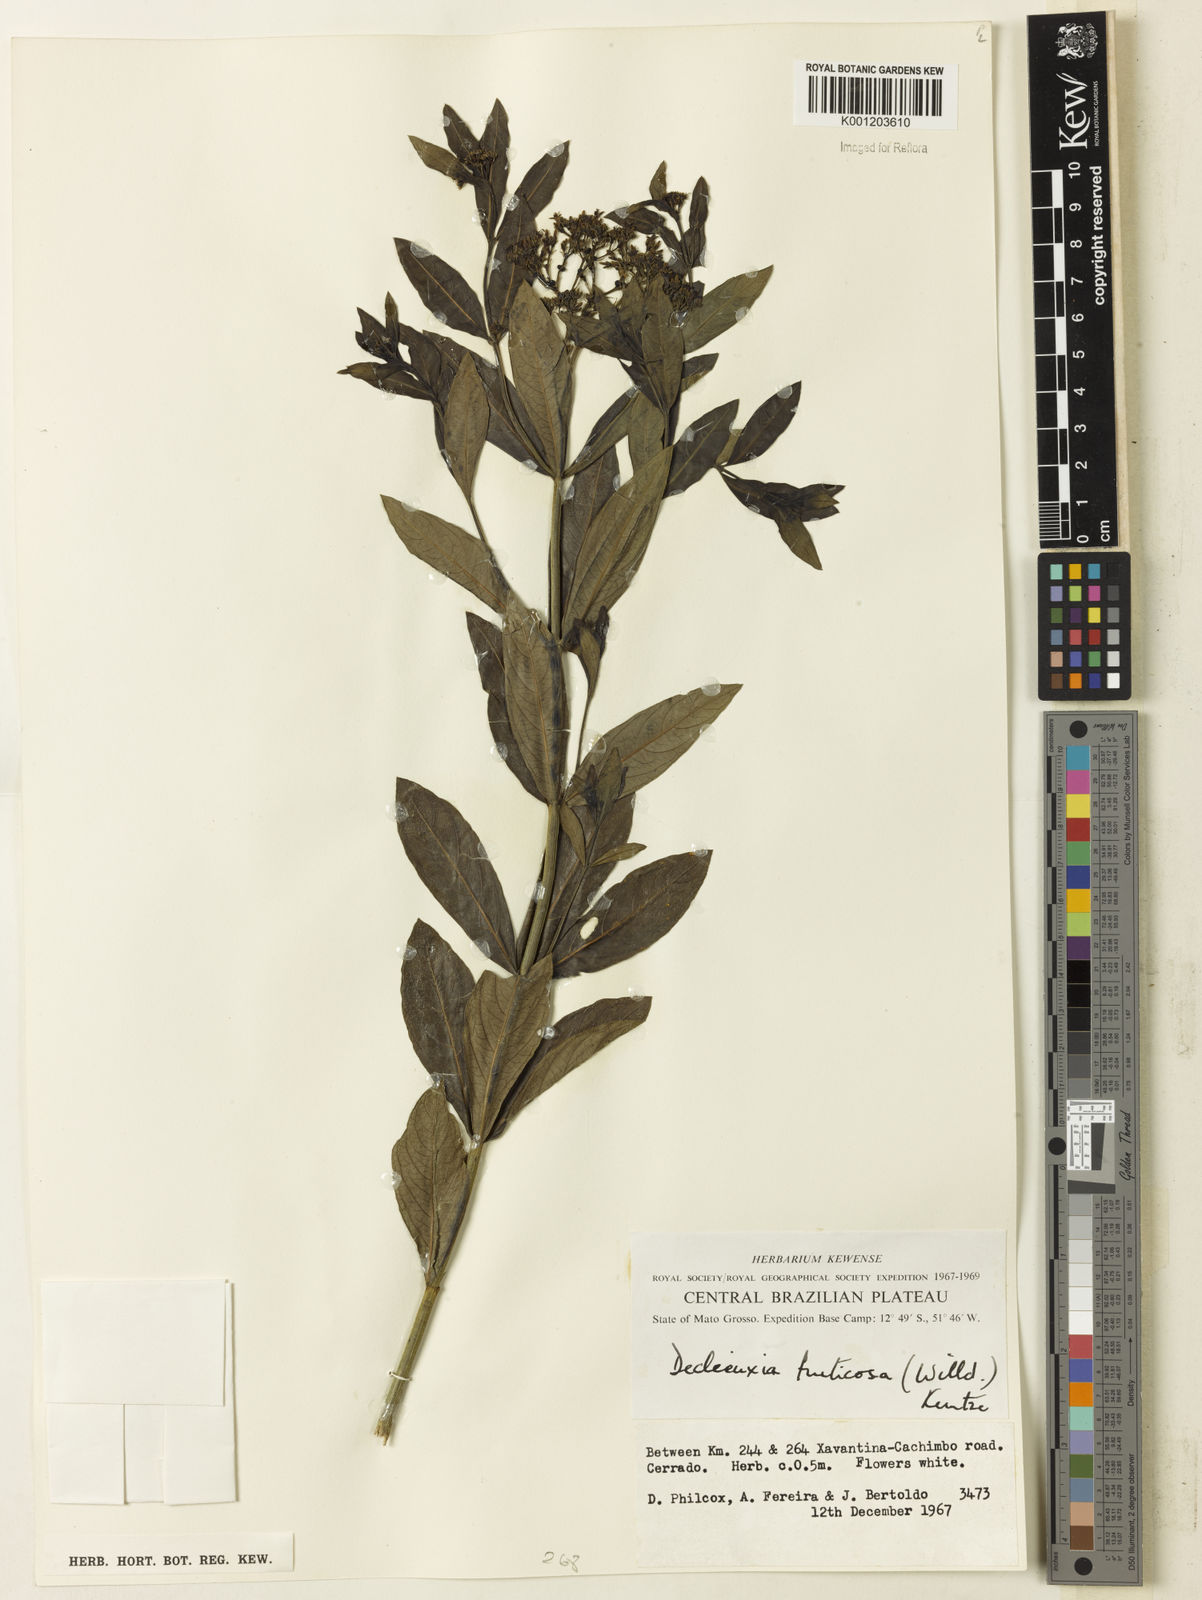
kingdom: Plantae
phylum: Tracheophyta
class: Magnoliopsida
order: Gentianales
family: Rubiaceae
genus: Declieuxia
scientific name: Declieuxia fruticosa
